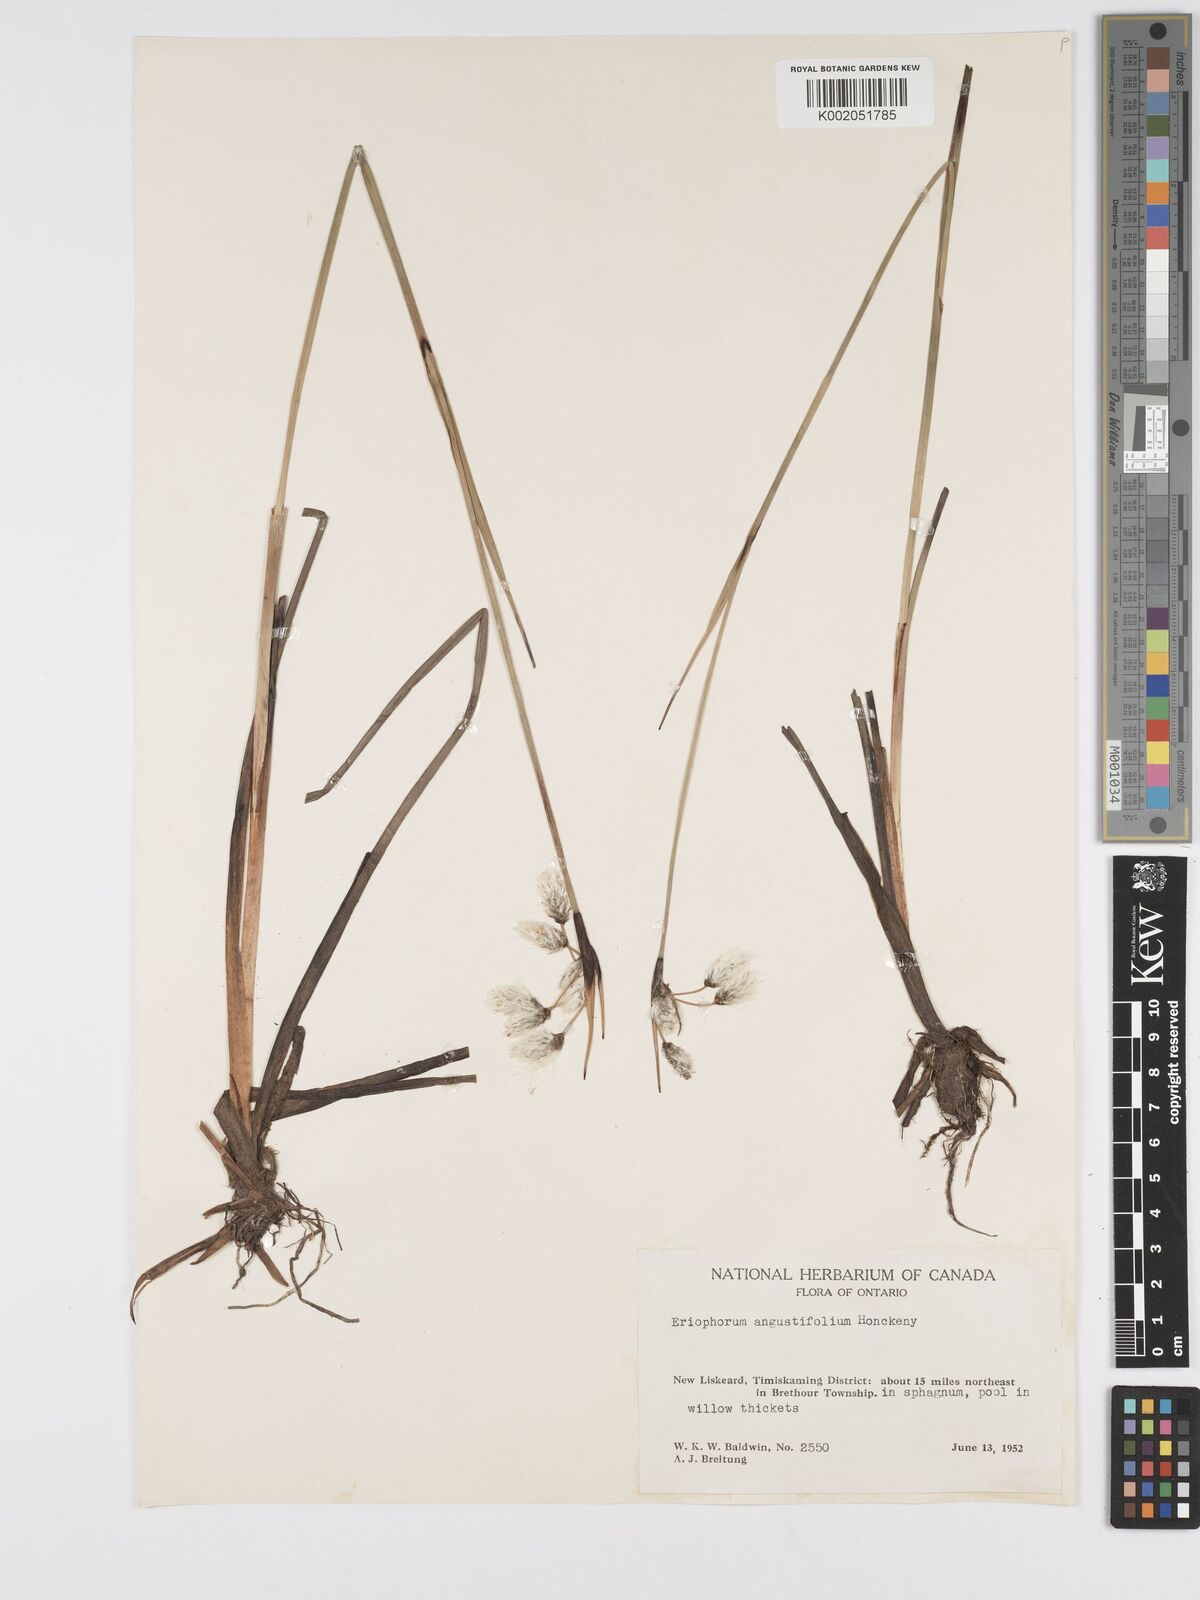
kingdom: Plantae
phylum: Tracheophyta
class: Liliopsida
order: Poales
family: Cyperaceae
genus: Eriophorum
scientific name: Eriophorum angustifolium
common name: Common cottongrass
